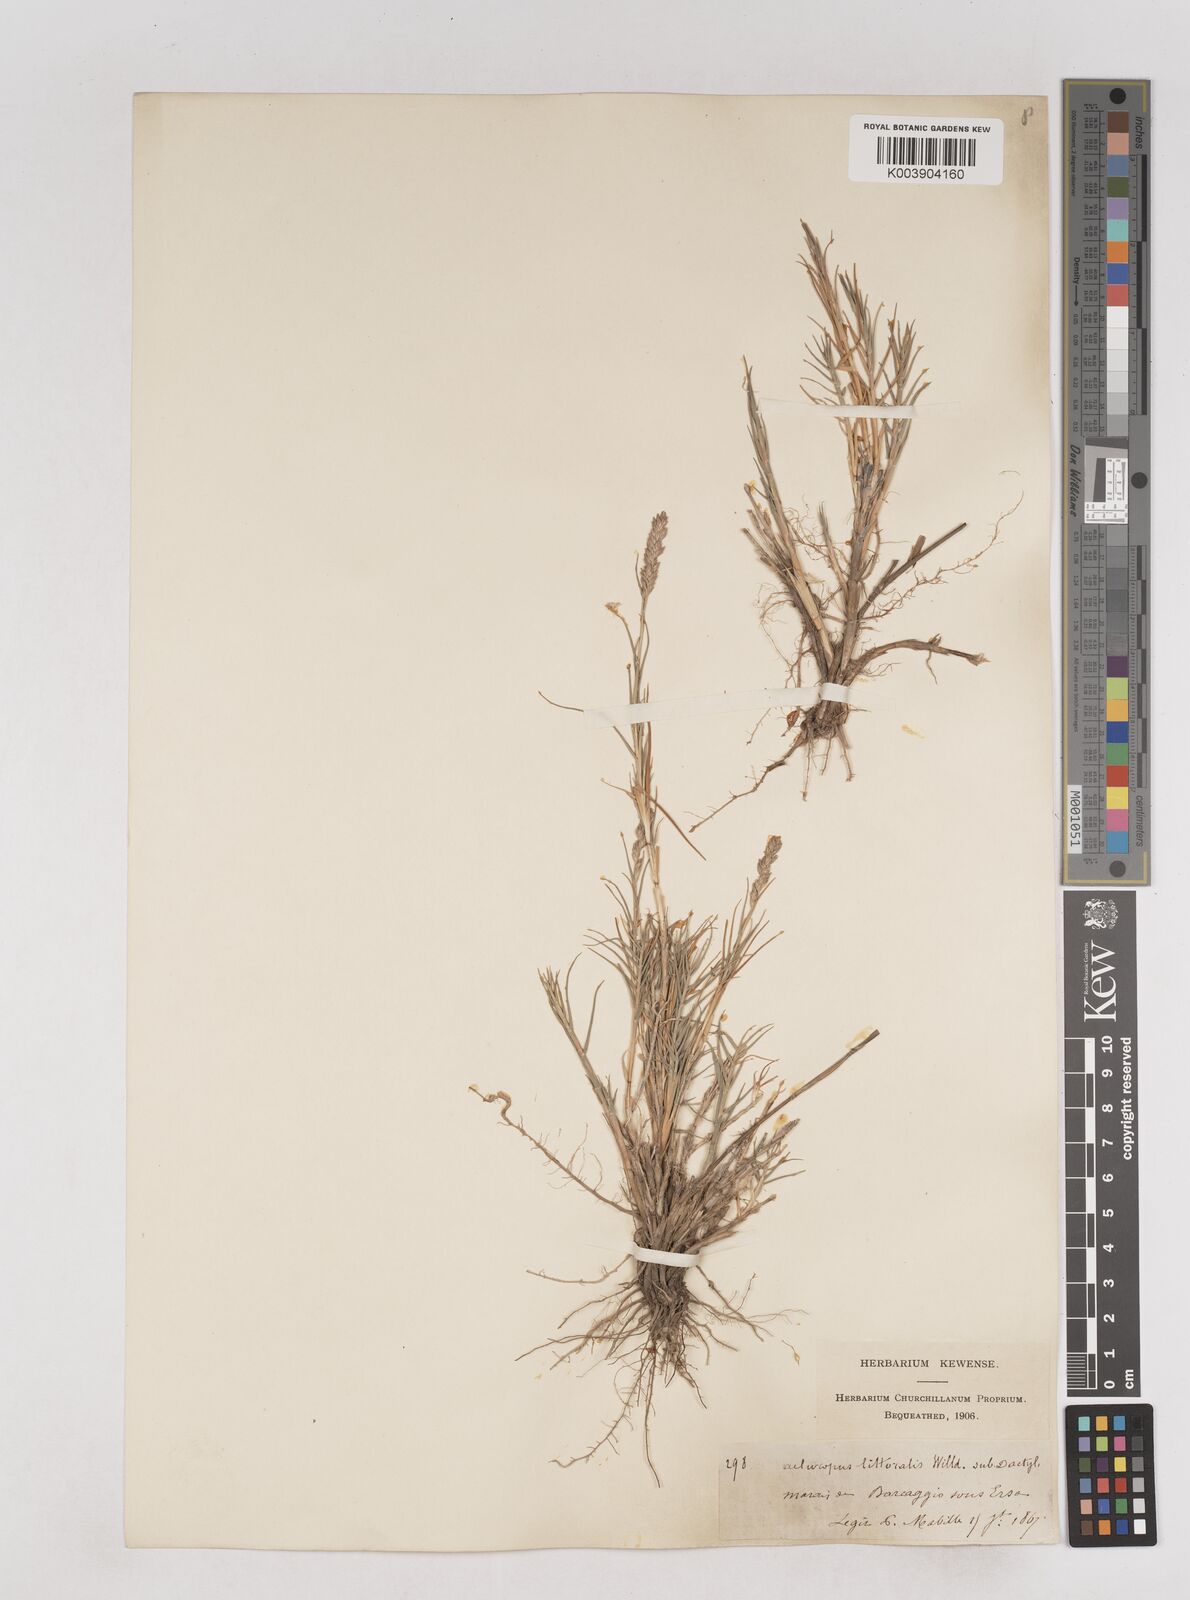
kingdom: Plantae
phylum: Tracheophyta
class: Liliopsida
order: Poales
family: Poaceae
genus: Aeluropus
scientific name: Aeluropus littoralis
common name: Indian walnut
